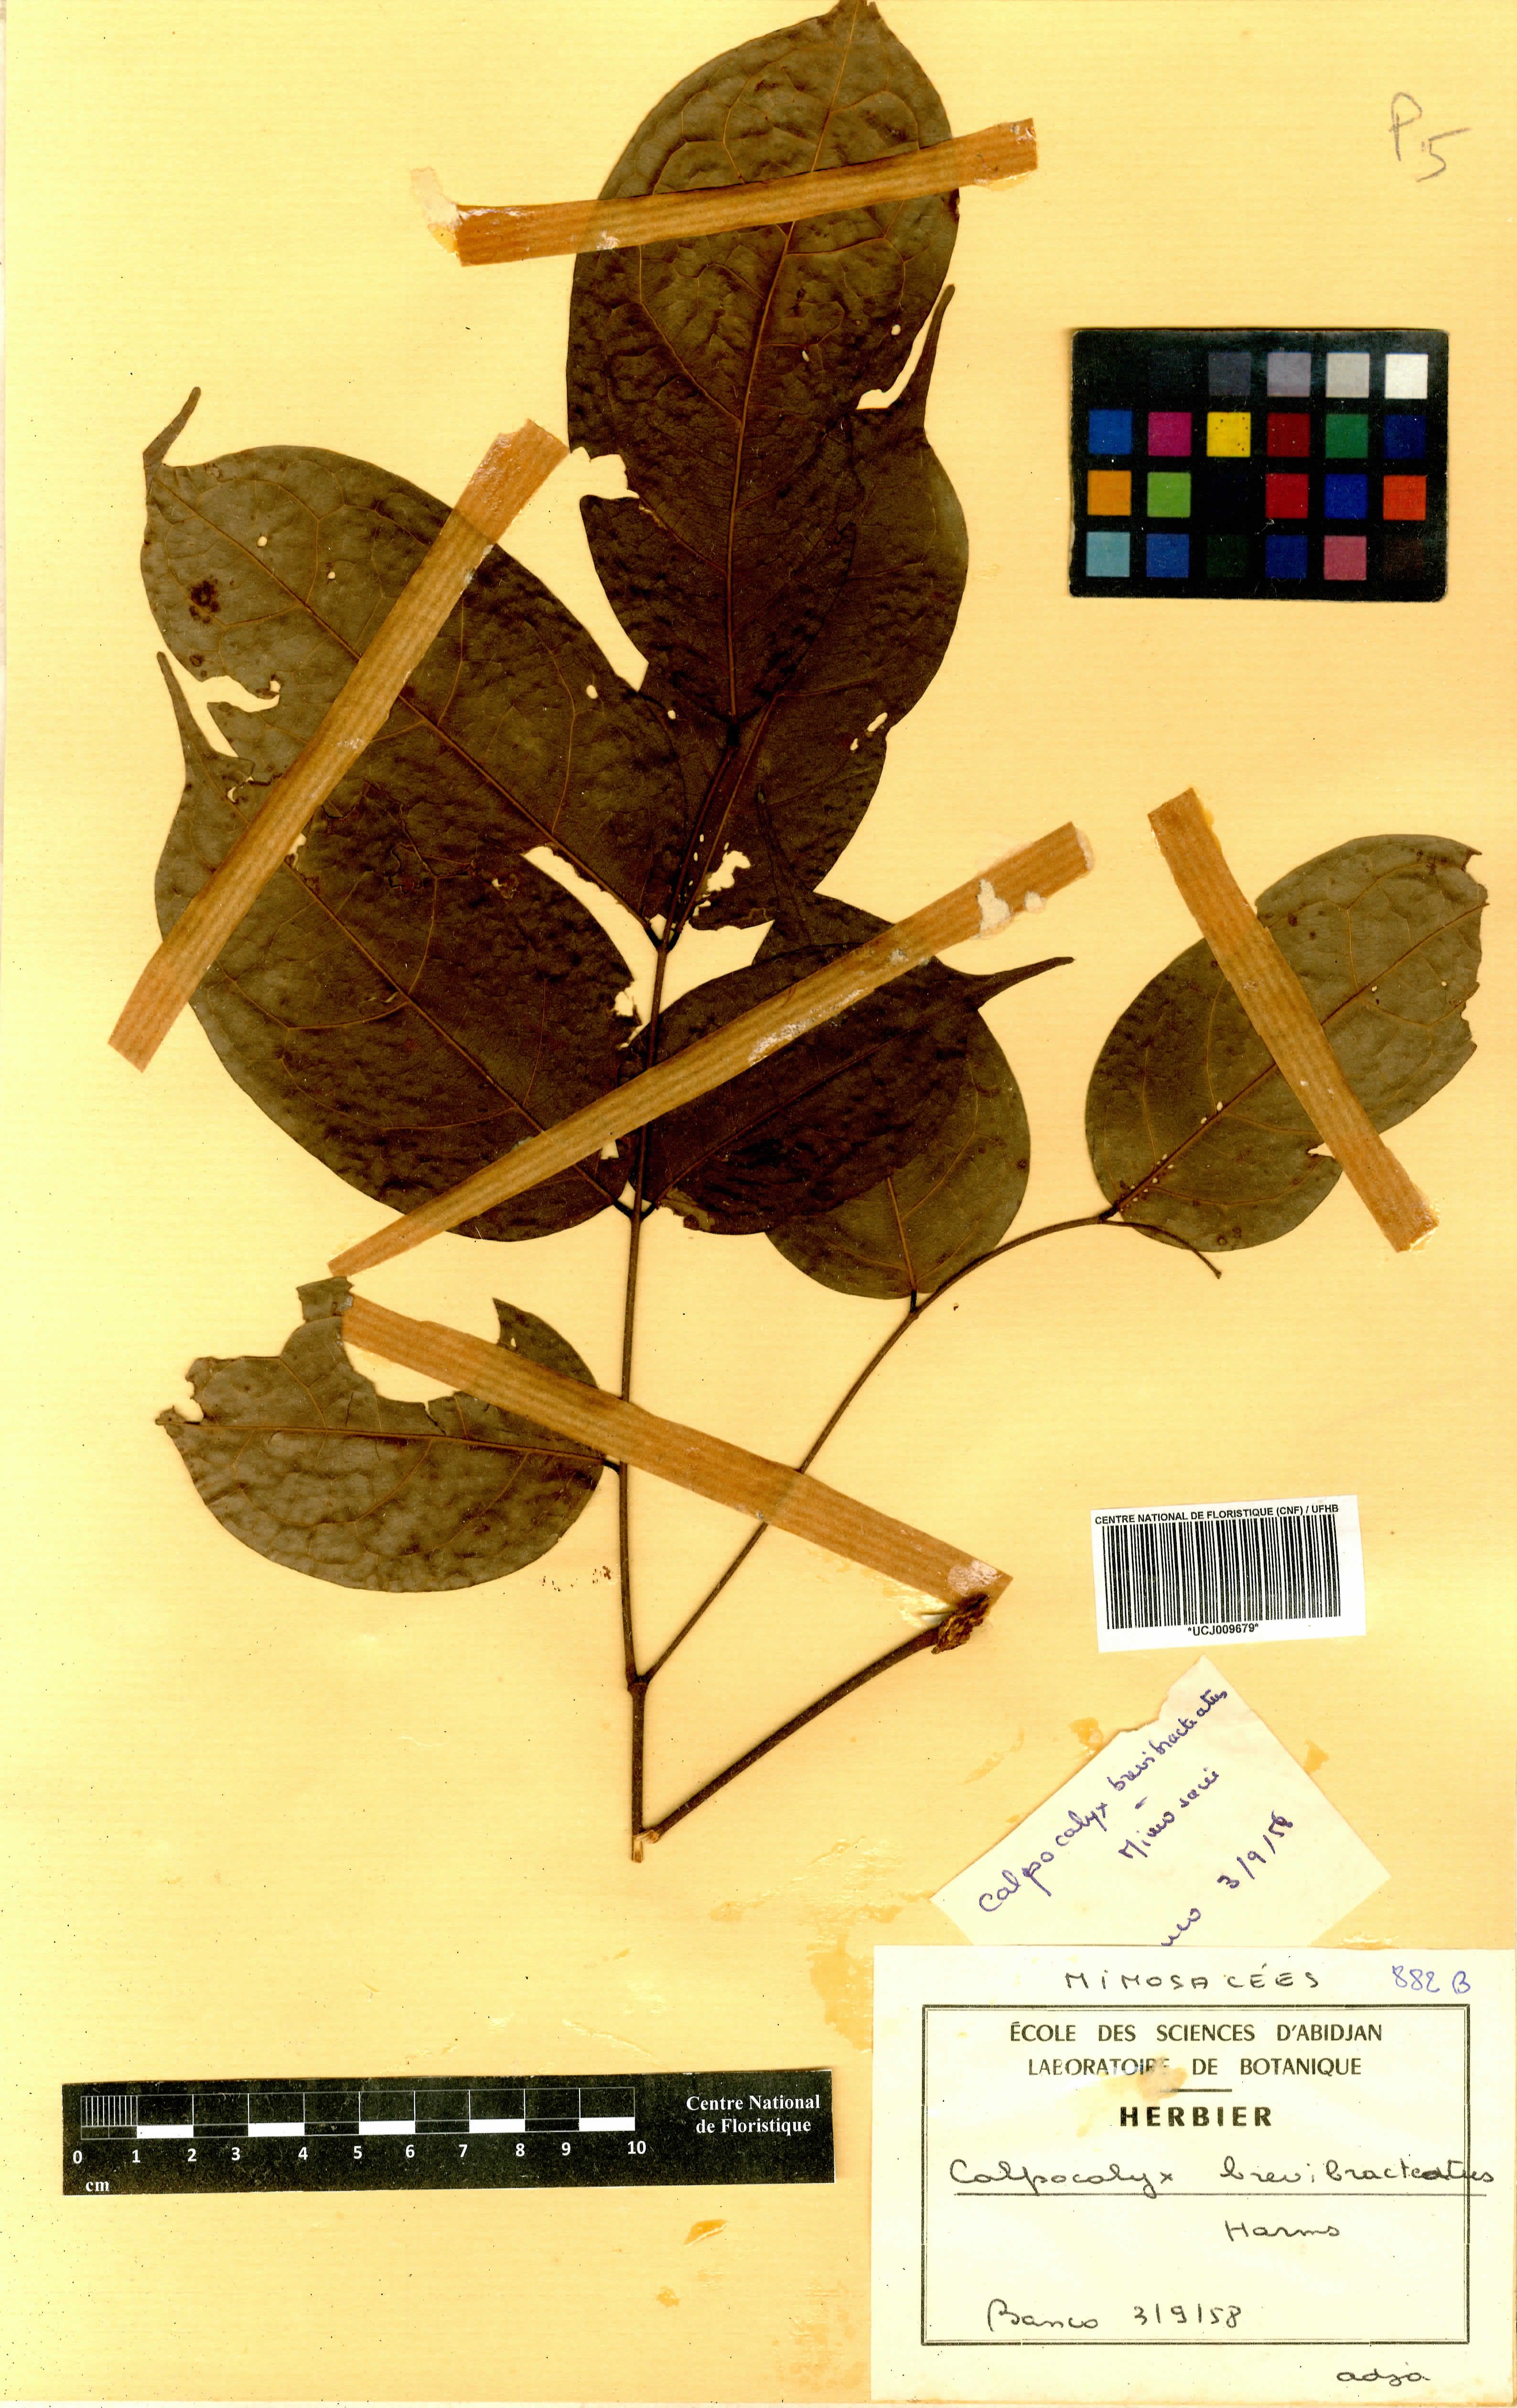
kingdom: Plantae
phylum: Tracheophyta
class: Magnoliopsida
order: Fabales
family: Fabaceae
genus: Calpocalyx
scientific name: Calpocalyx brevibracteatus
